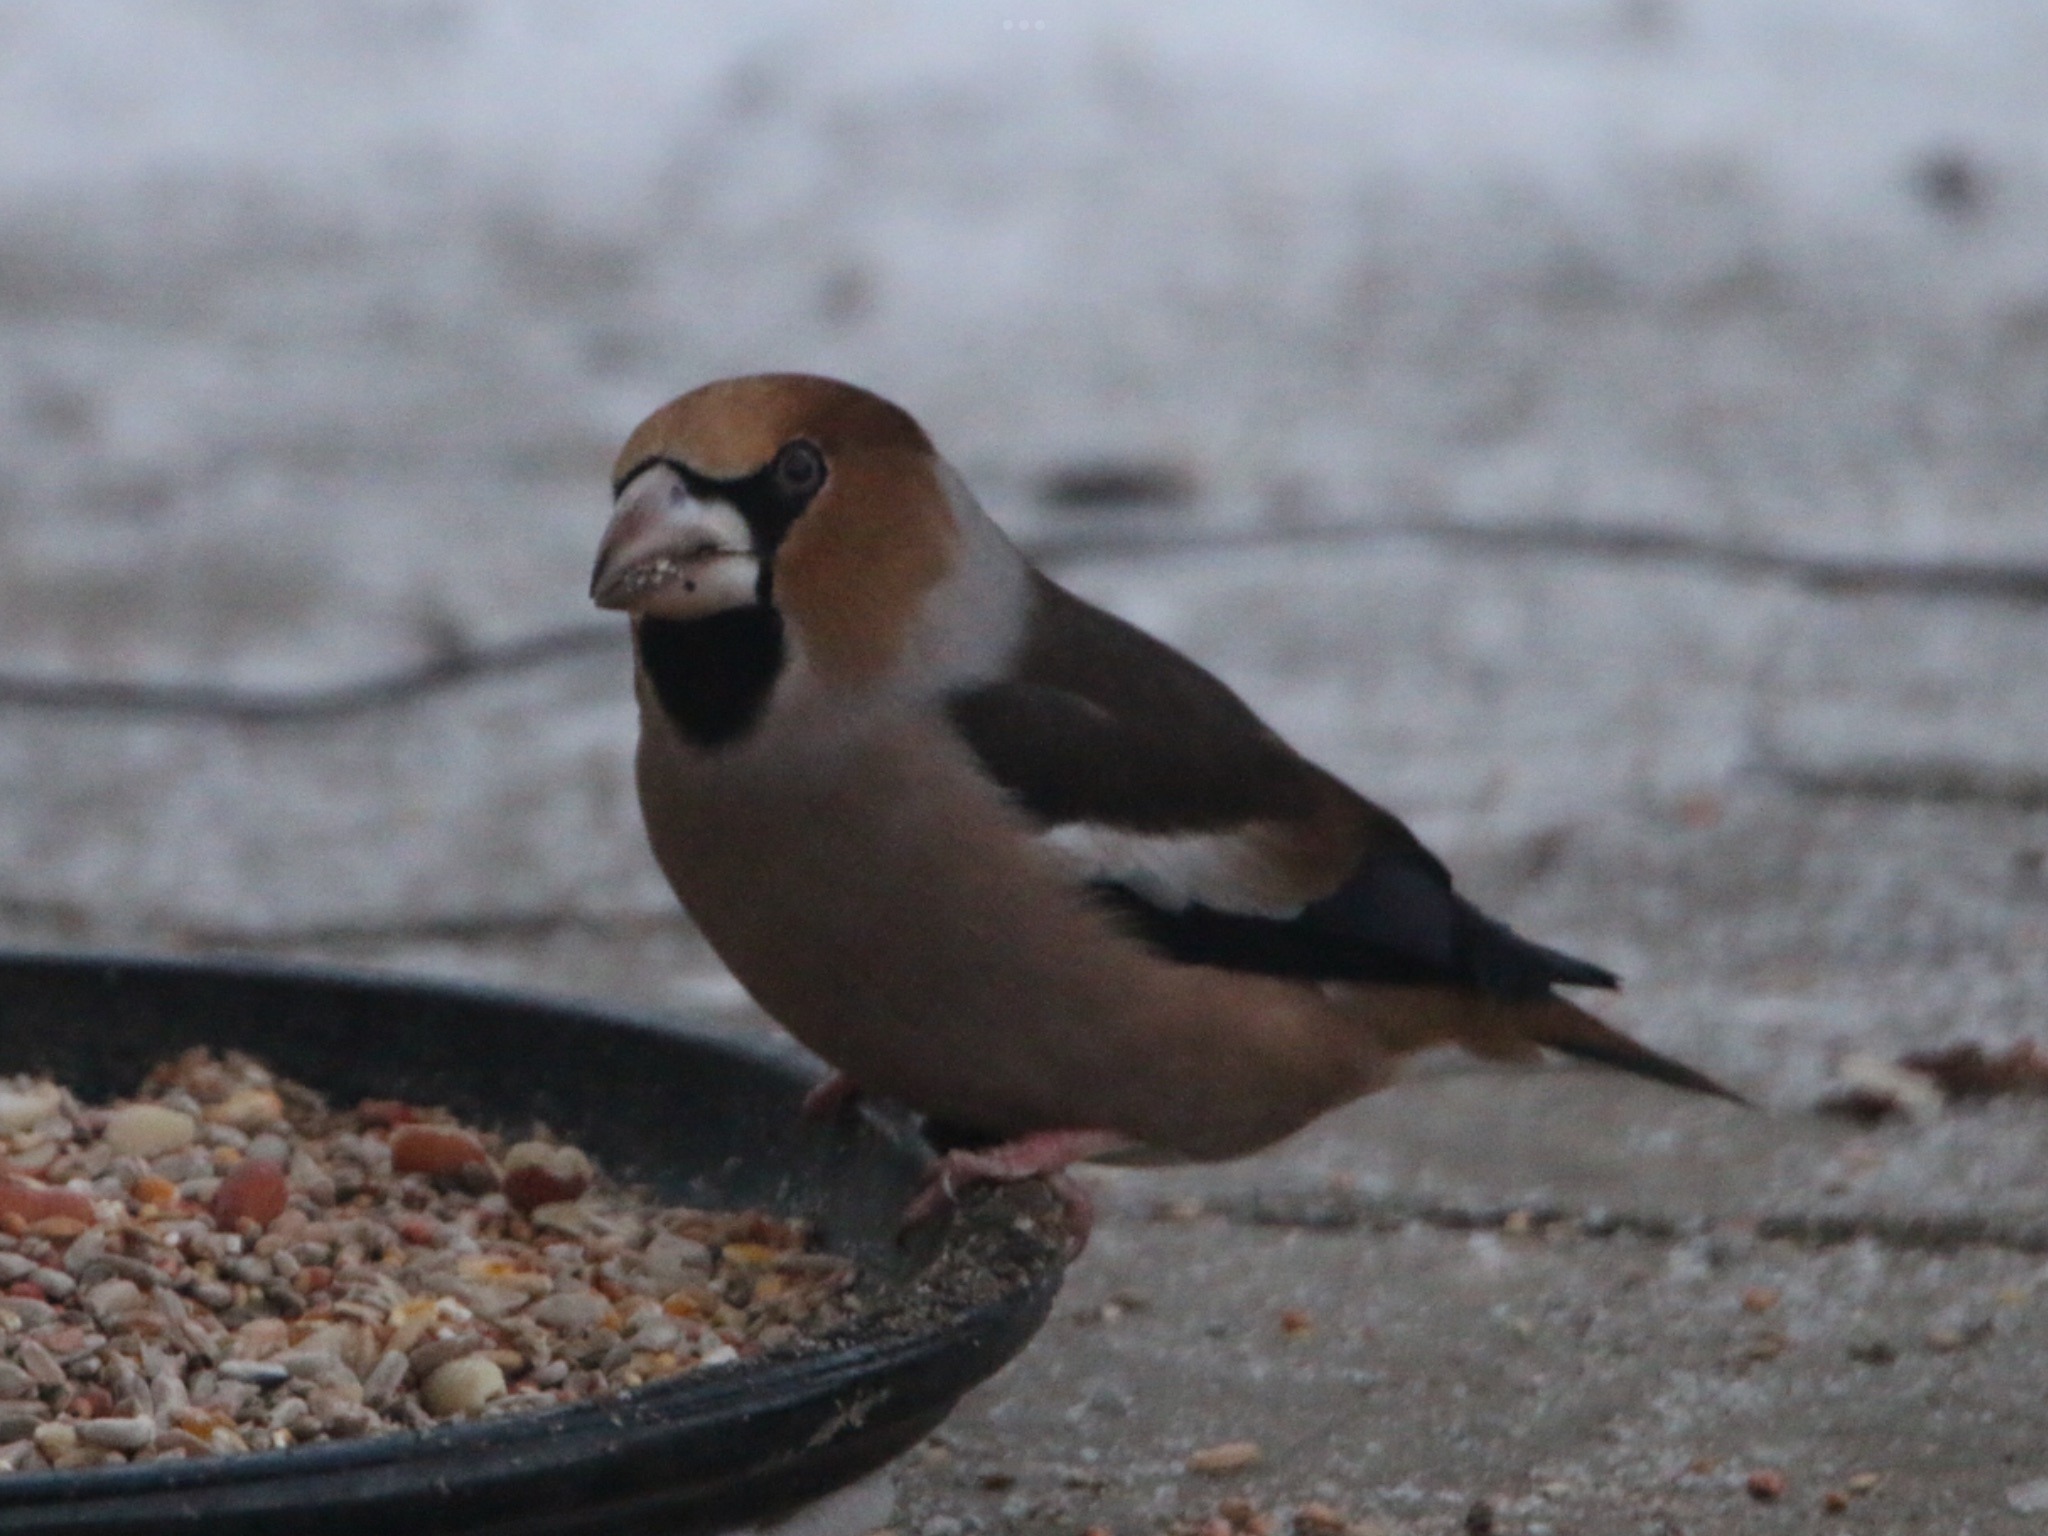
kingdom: Animalia
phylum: Chordata
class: Aves
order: Passeriformes
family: Fringillidae
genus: Coccothraustes
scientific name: Coccothraustes coccothraustes
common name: Kernebider
